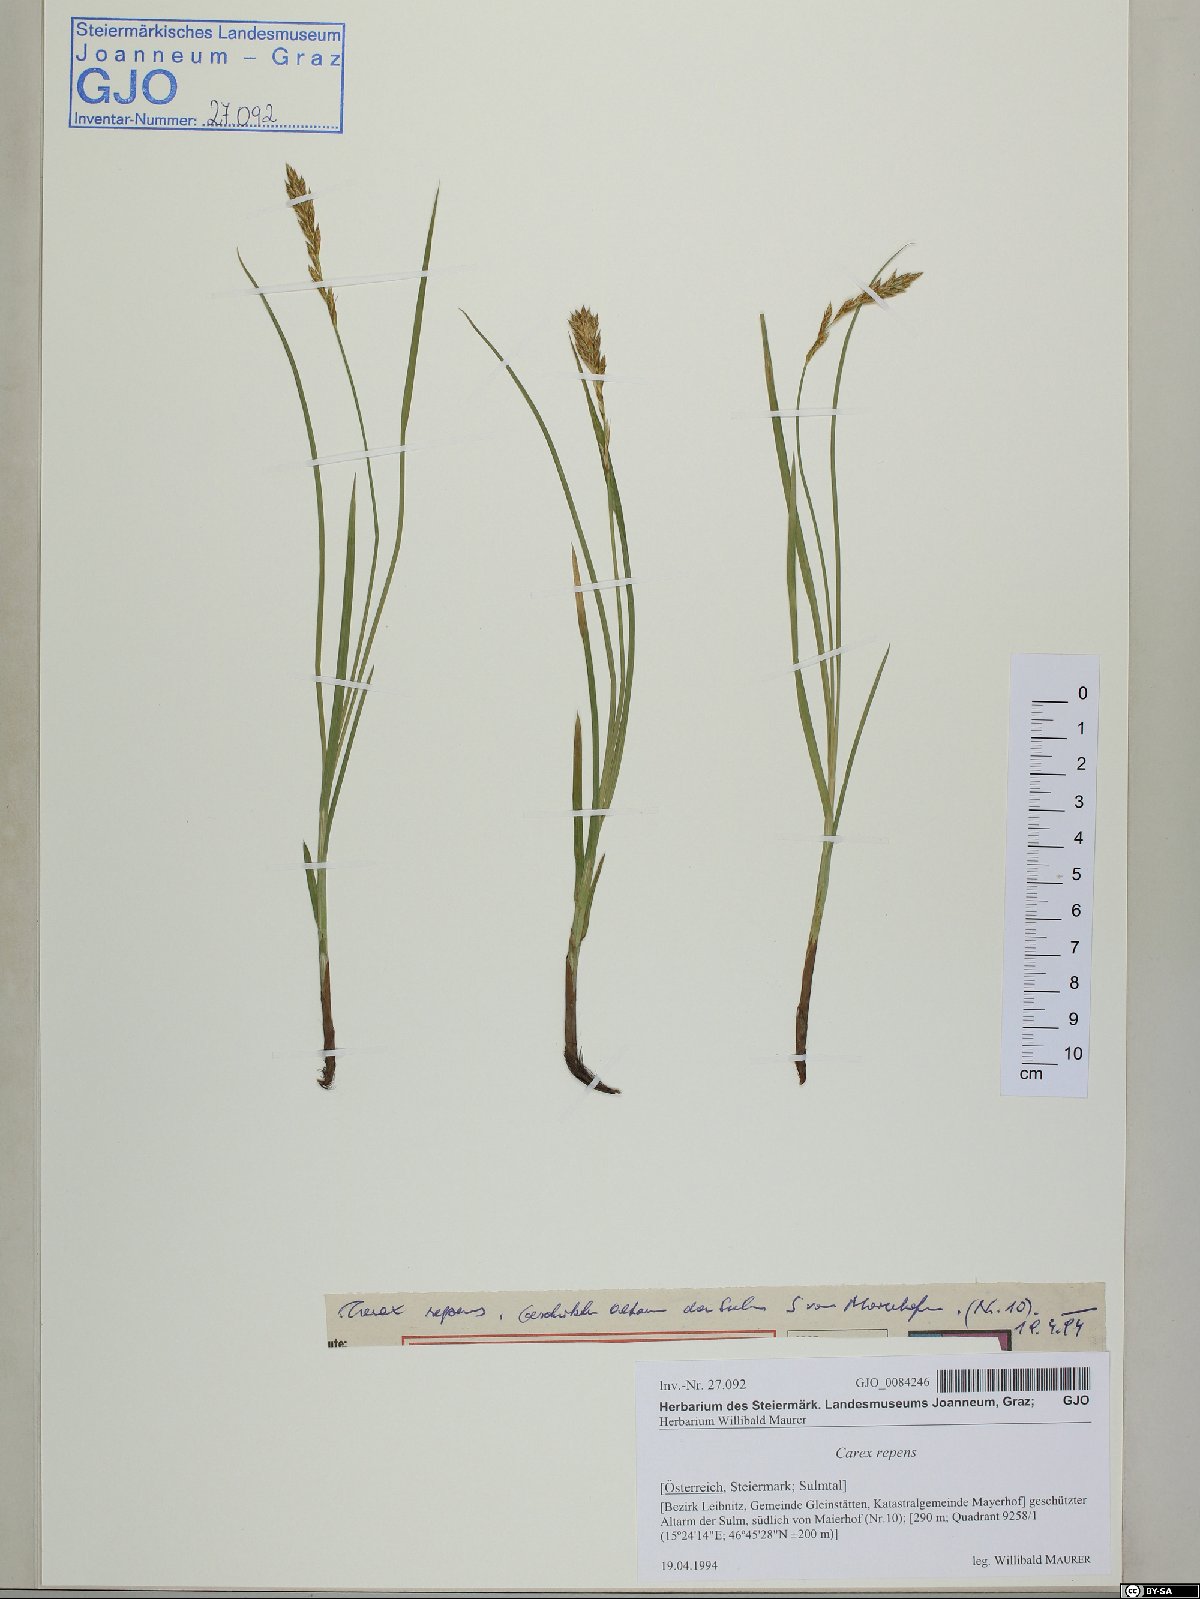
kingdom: Plantae
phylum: Tracheophyta
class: Liliopsida
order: Poales
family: Cyperaceae
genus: Carex
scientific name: Carex repens
